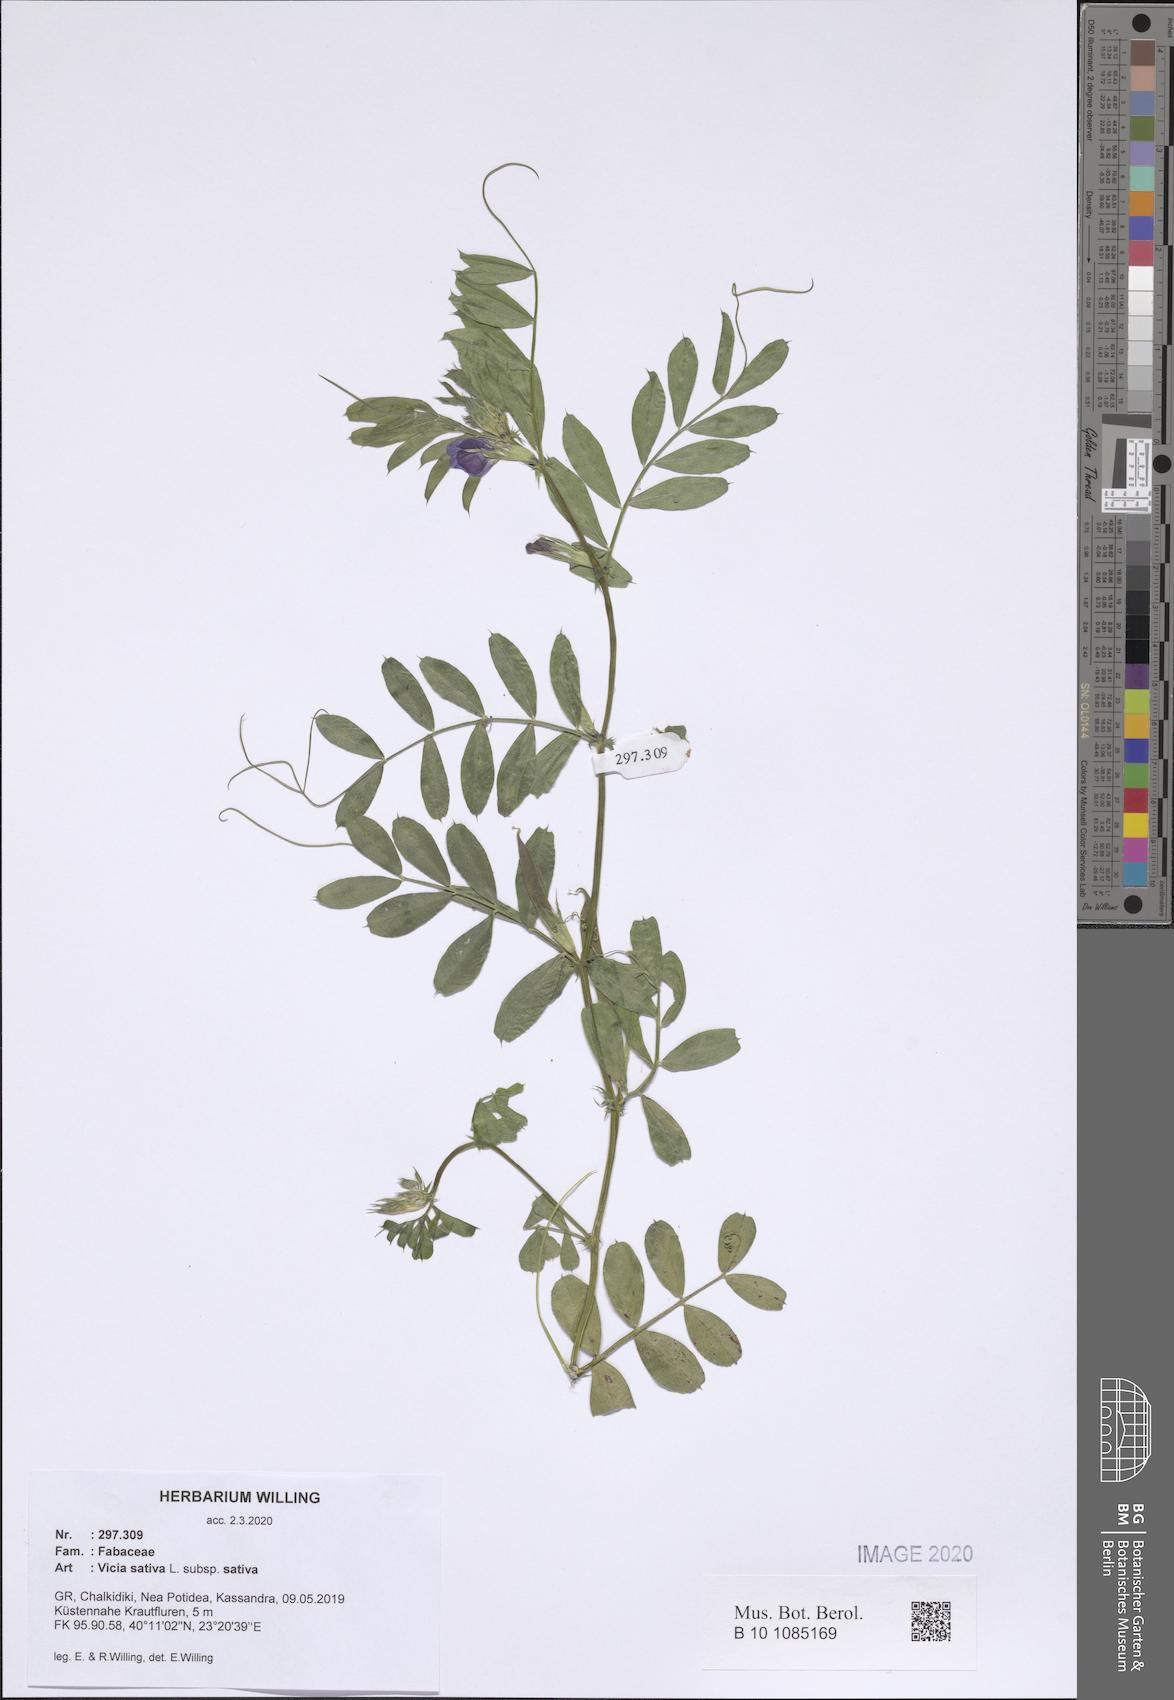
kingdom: Plantae
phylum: Tracheophyta
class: Magnoliopsida
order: Fabales
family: Fabaceae
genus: Vicia
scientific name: Vicia sativa
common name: Garden vetch
